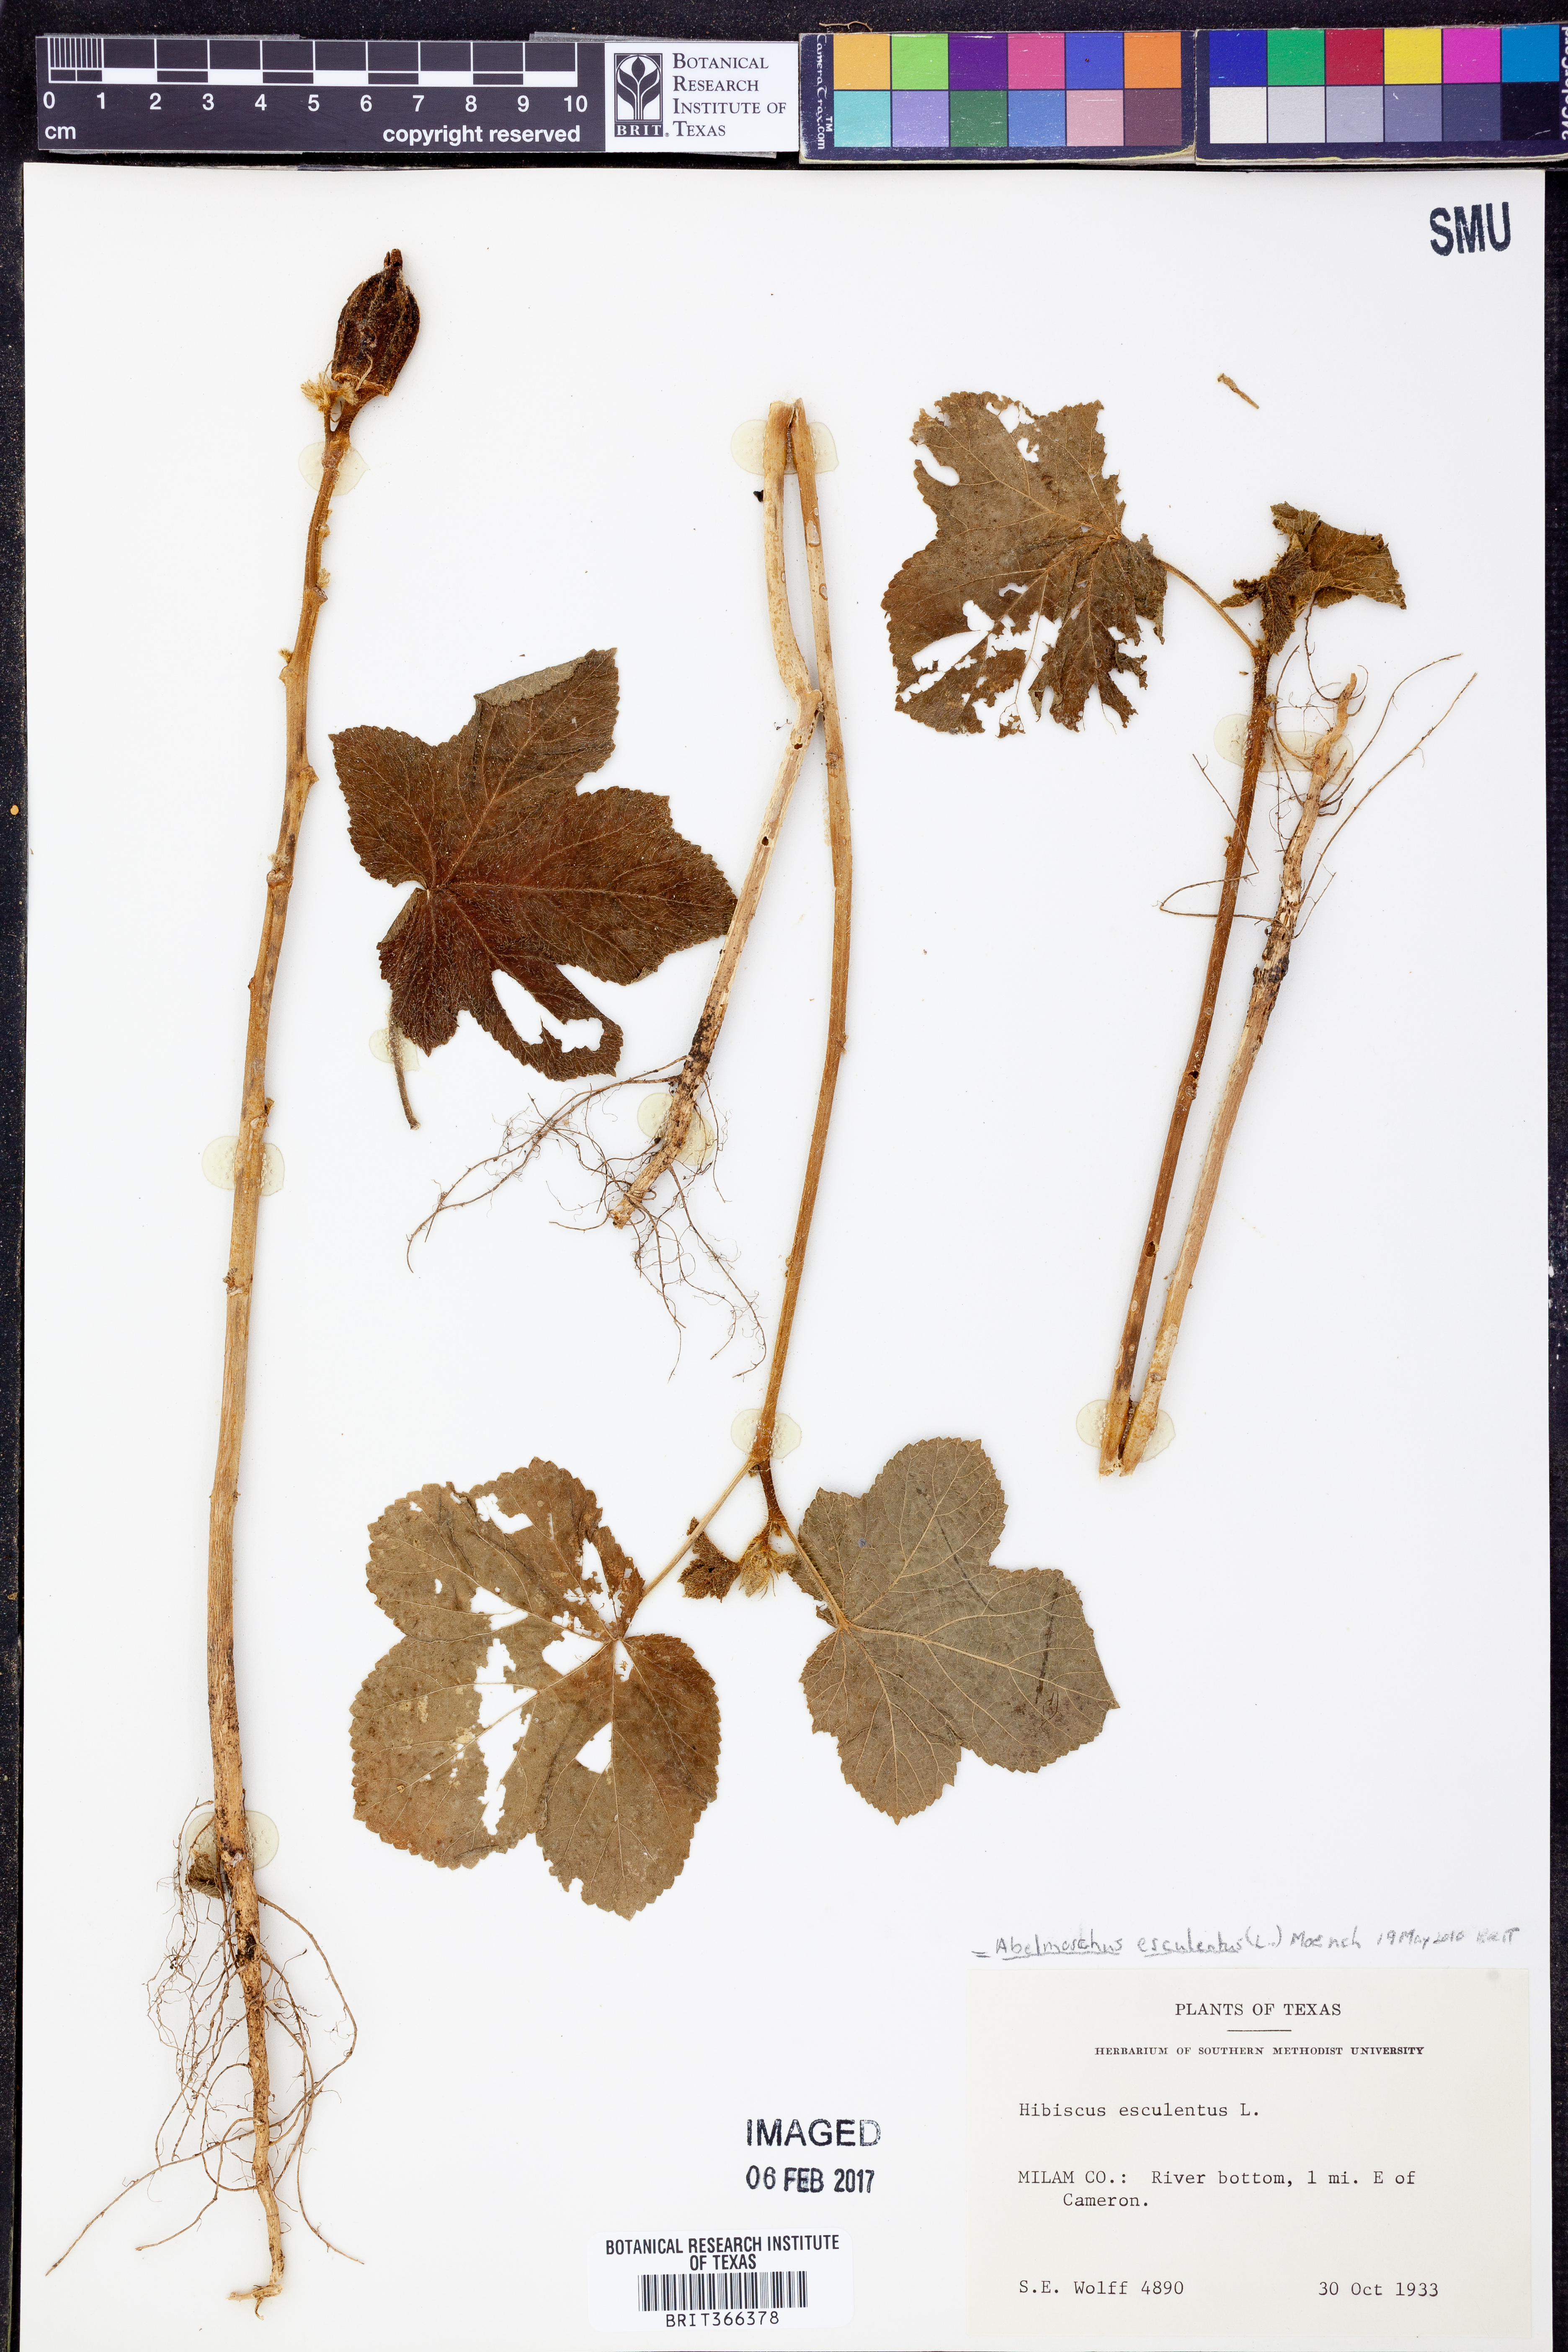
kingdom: Plantae
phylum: Tracheophyta
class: Magnoliopsida
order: Malvales
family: Malvaceae
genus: Abelmoschus
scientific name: Abelmoschus esculentus
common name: Okra
